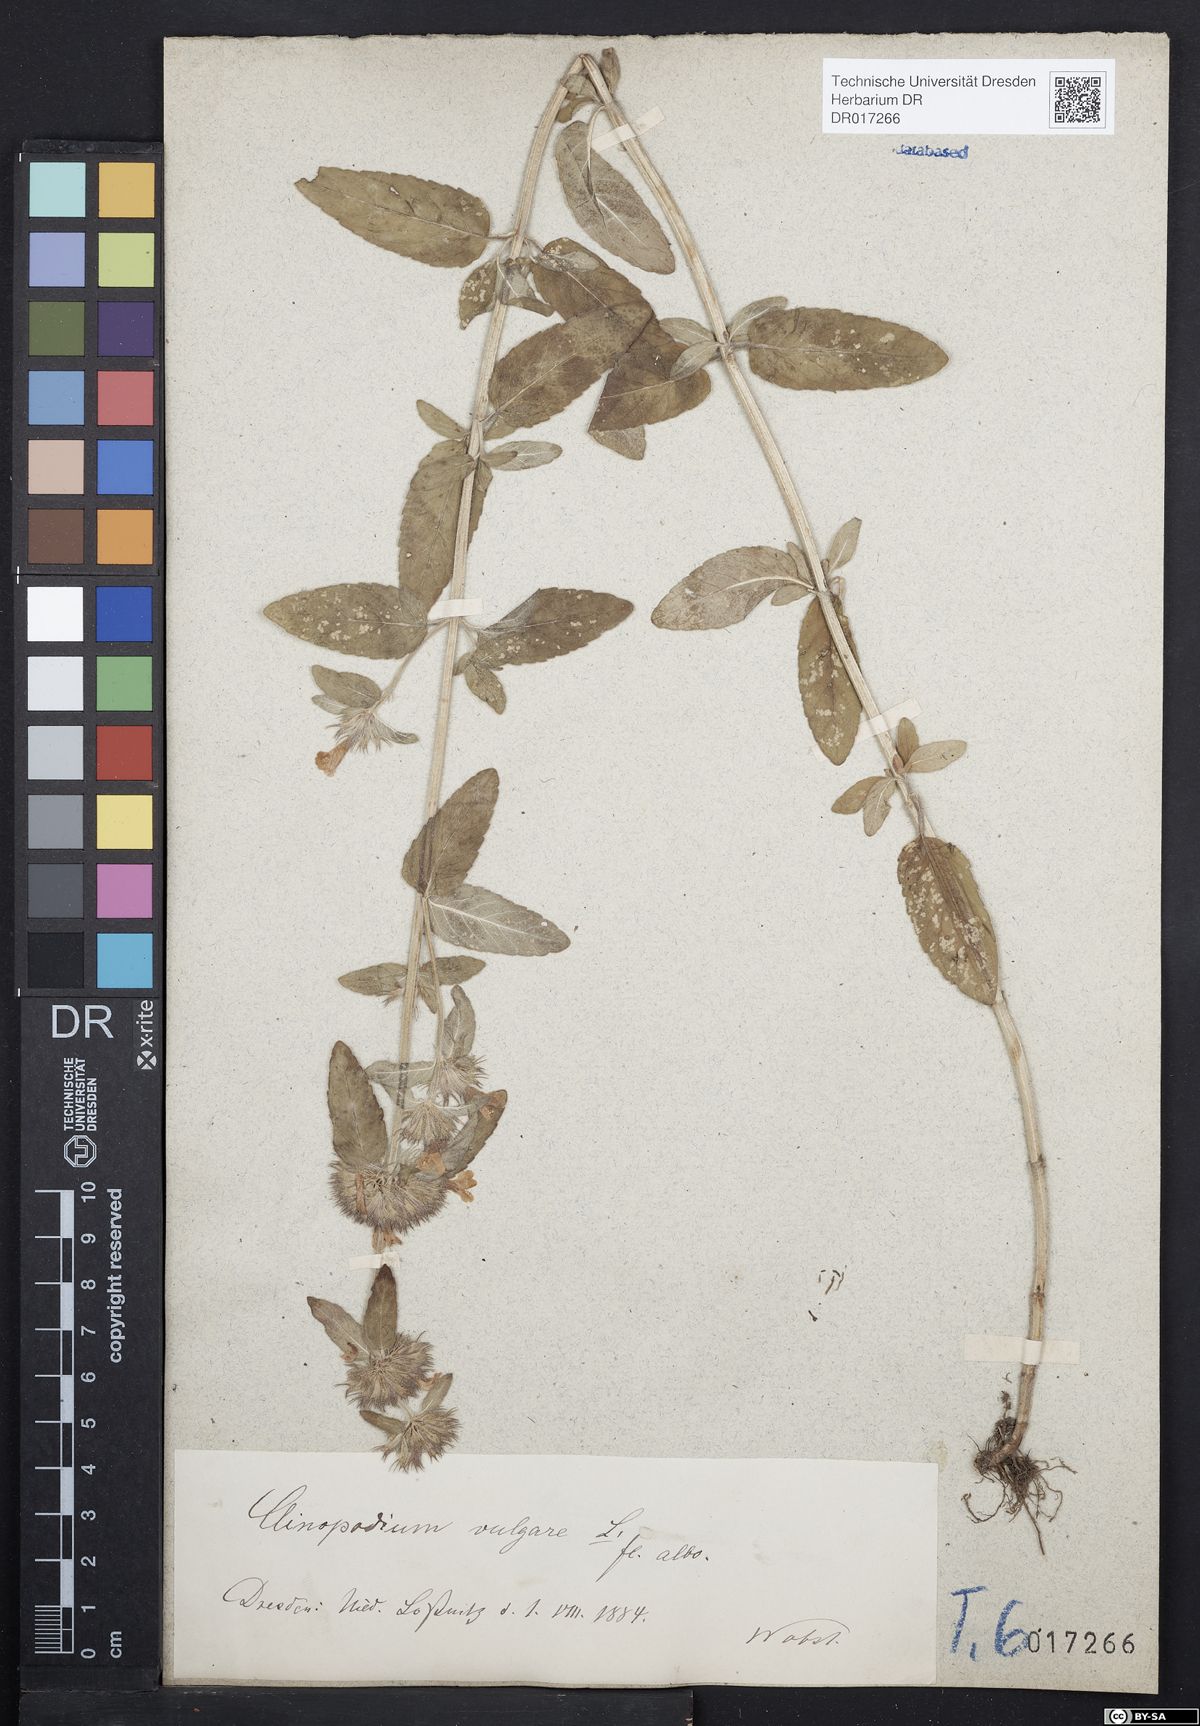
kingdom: Plantae
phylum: Tracheophyta
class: Magnoliopsida
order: Lamiales
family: Lamiaceae
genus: Clinopodium
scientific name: Clinopodium vulgare
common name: Wild basil
